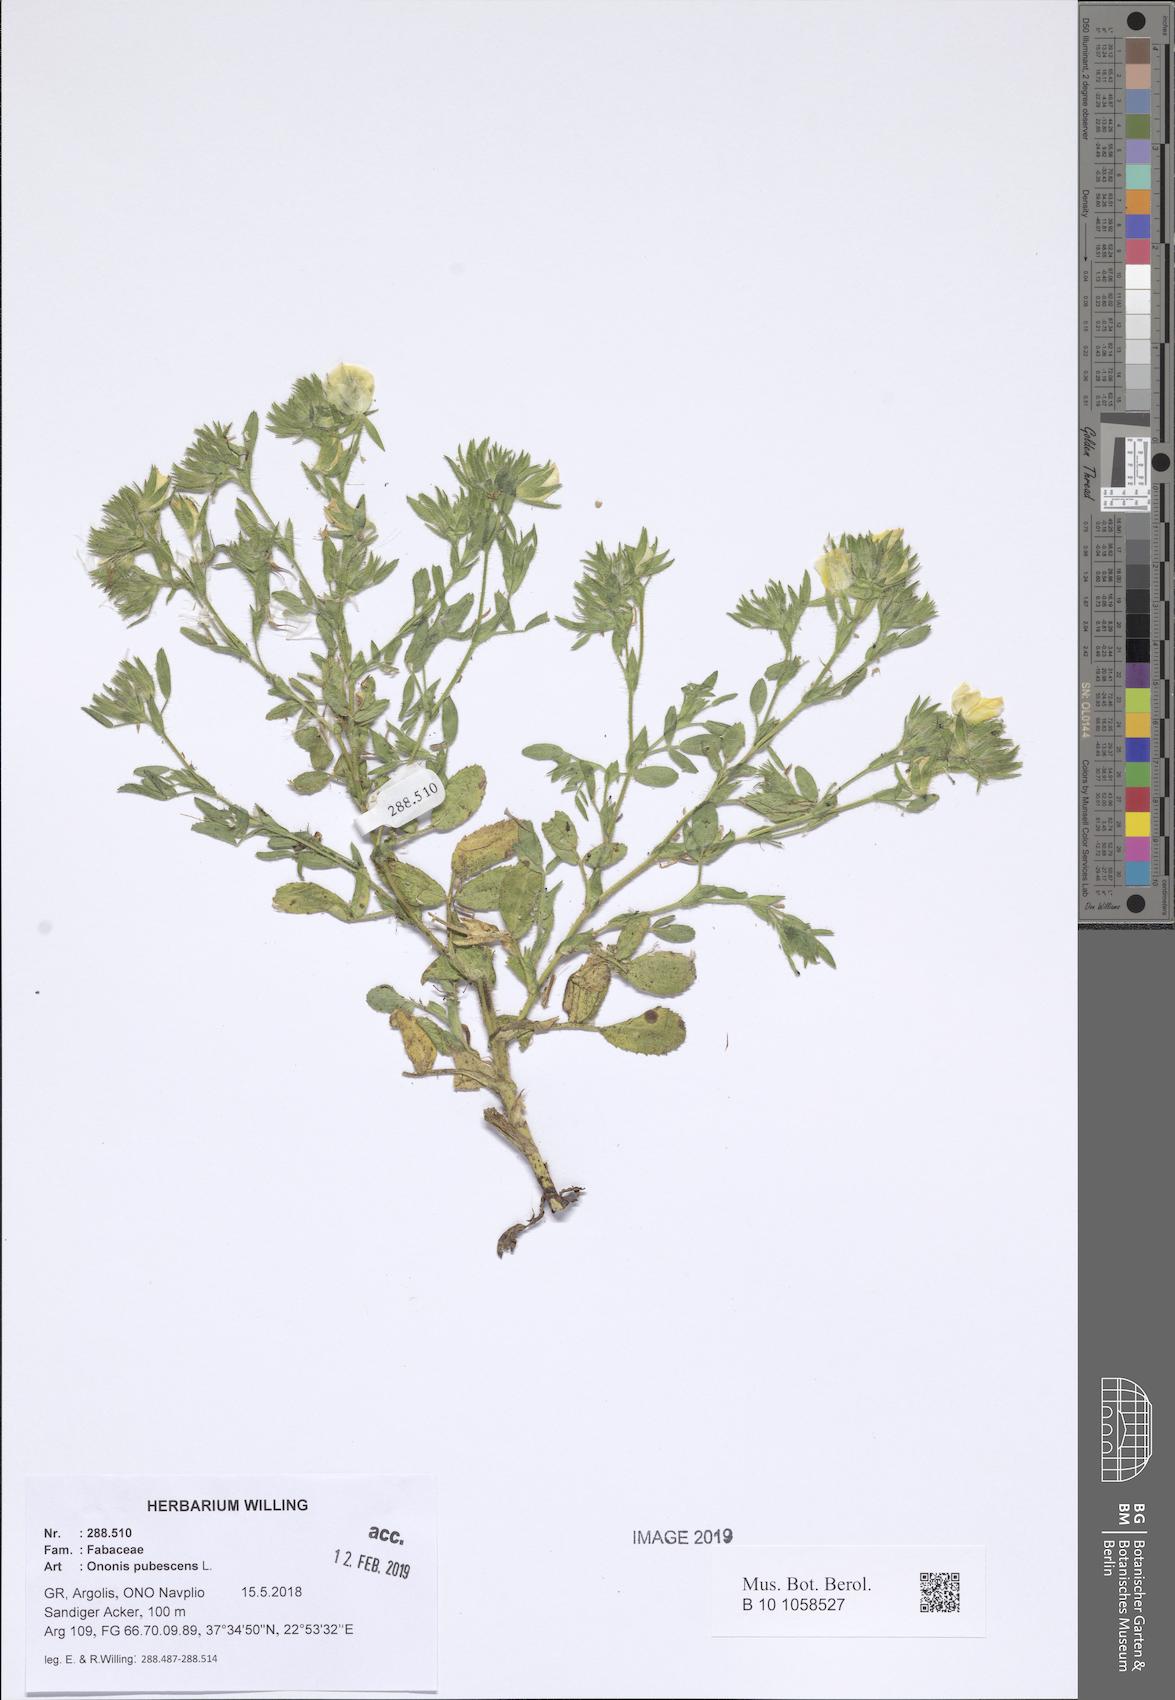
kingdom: Plantae
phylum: Tracheophyta
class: Magnoliopsida
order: Fabales
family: Fabaceae
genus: Ononis
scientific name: Ononis pubescens
